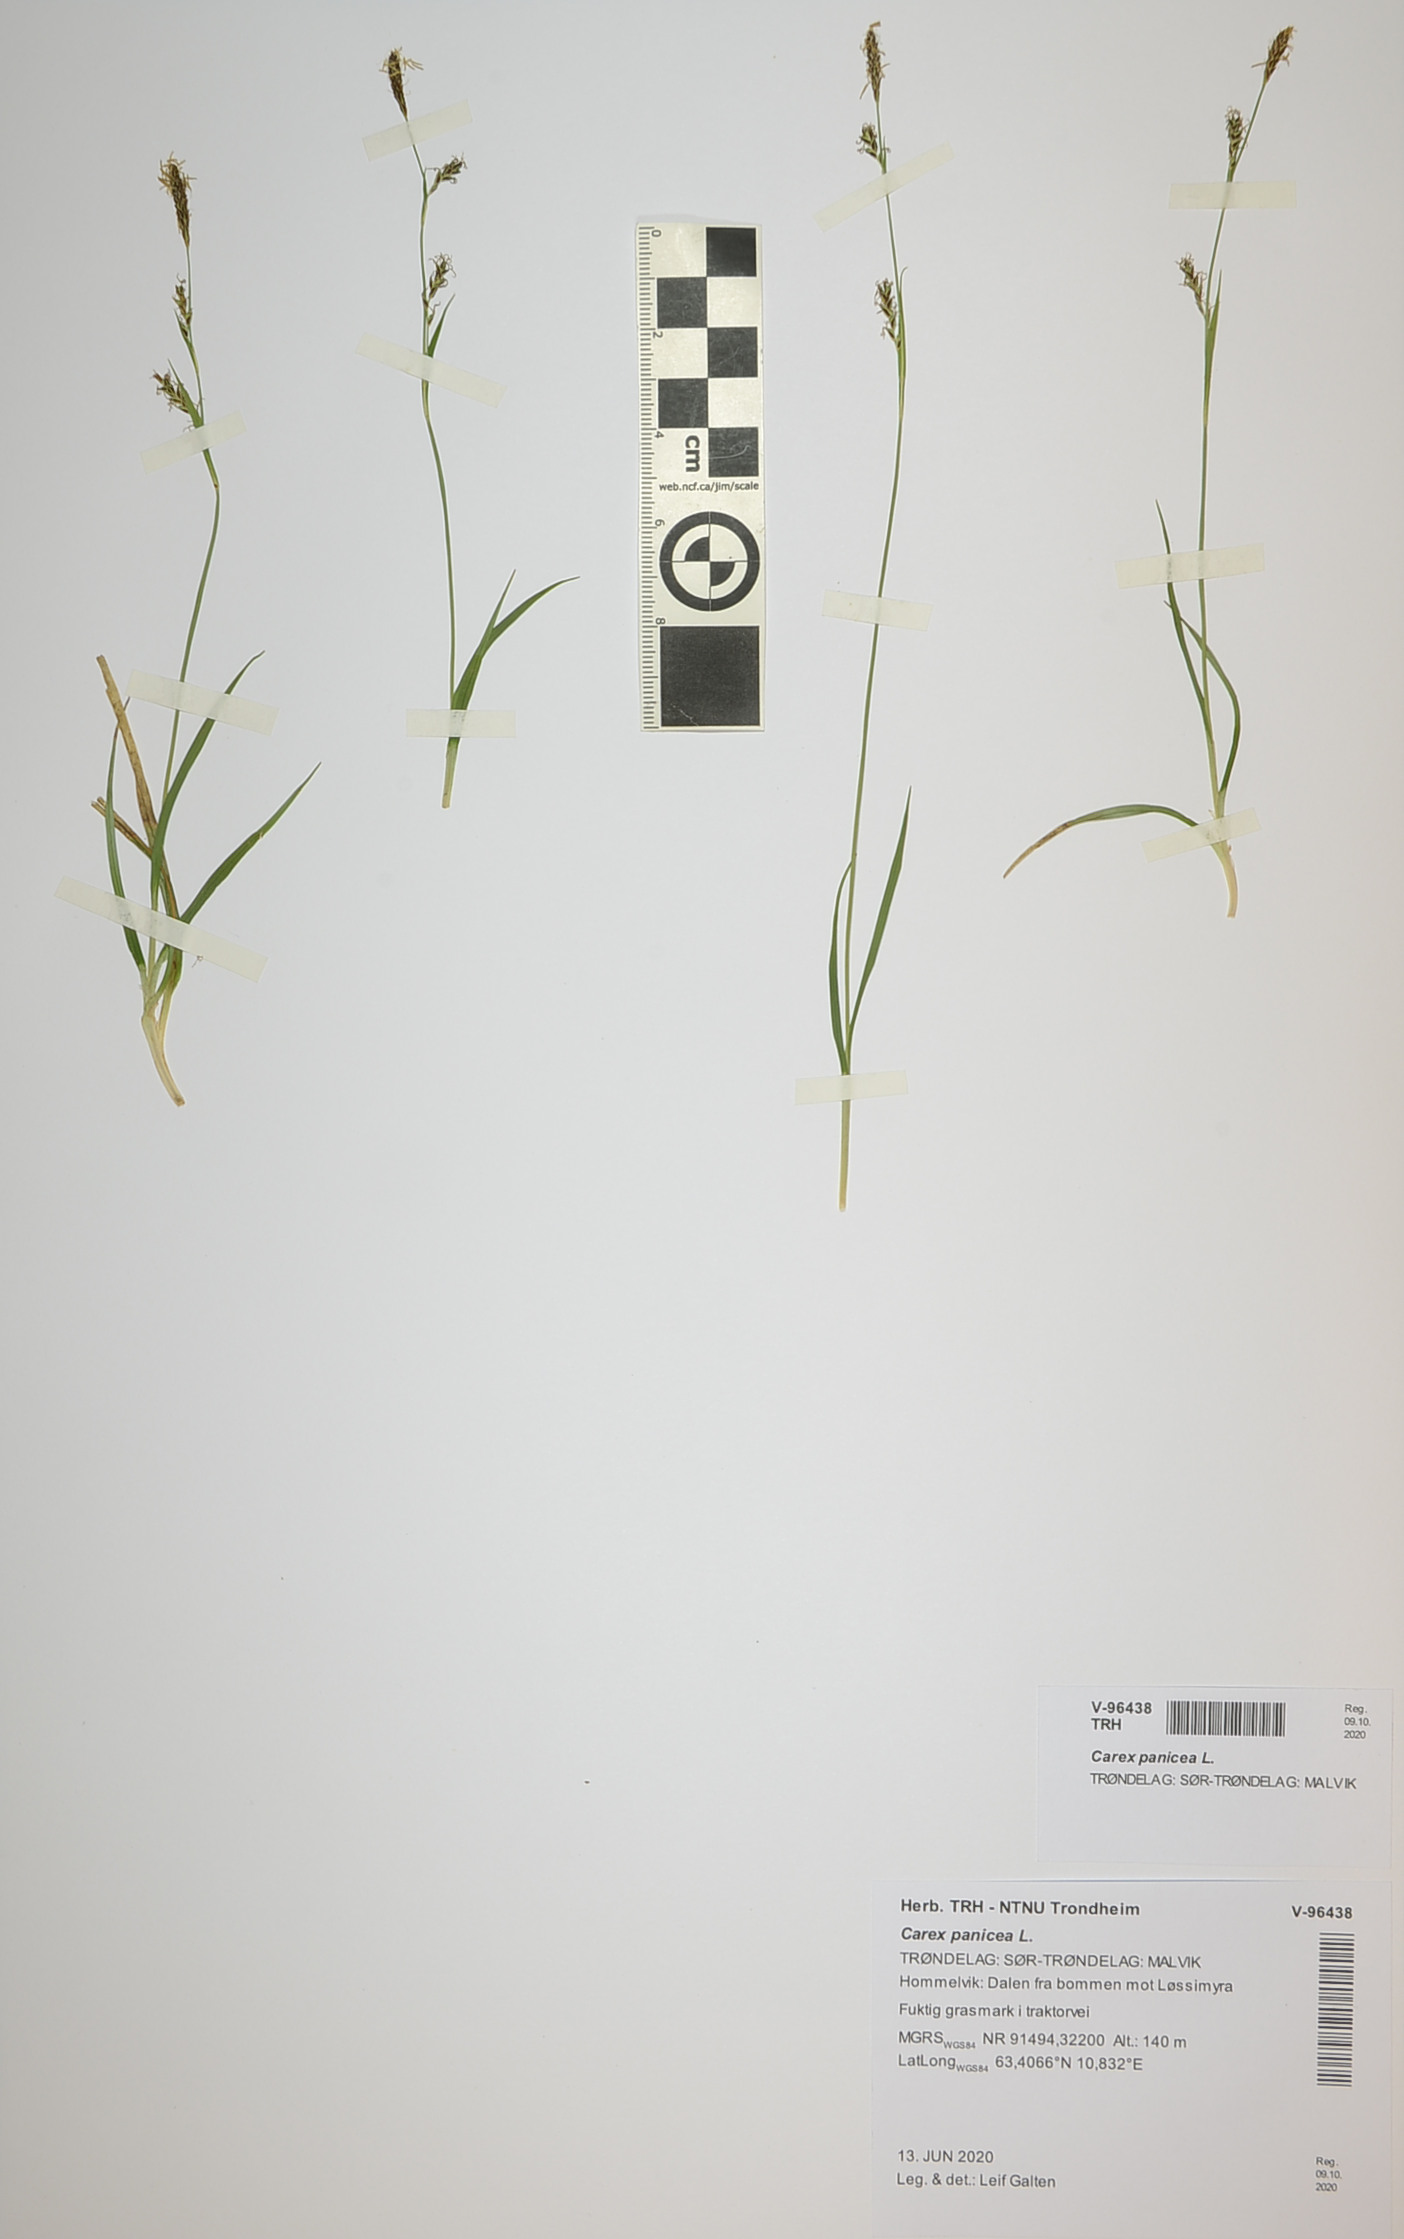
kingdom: Plantae
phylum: Tracheophyta
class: Liliopsida
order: Poales
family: Cyperaceae
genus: Carex
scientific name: Carex panicea
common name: Carnation sedge
